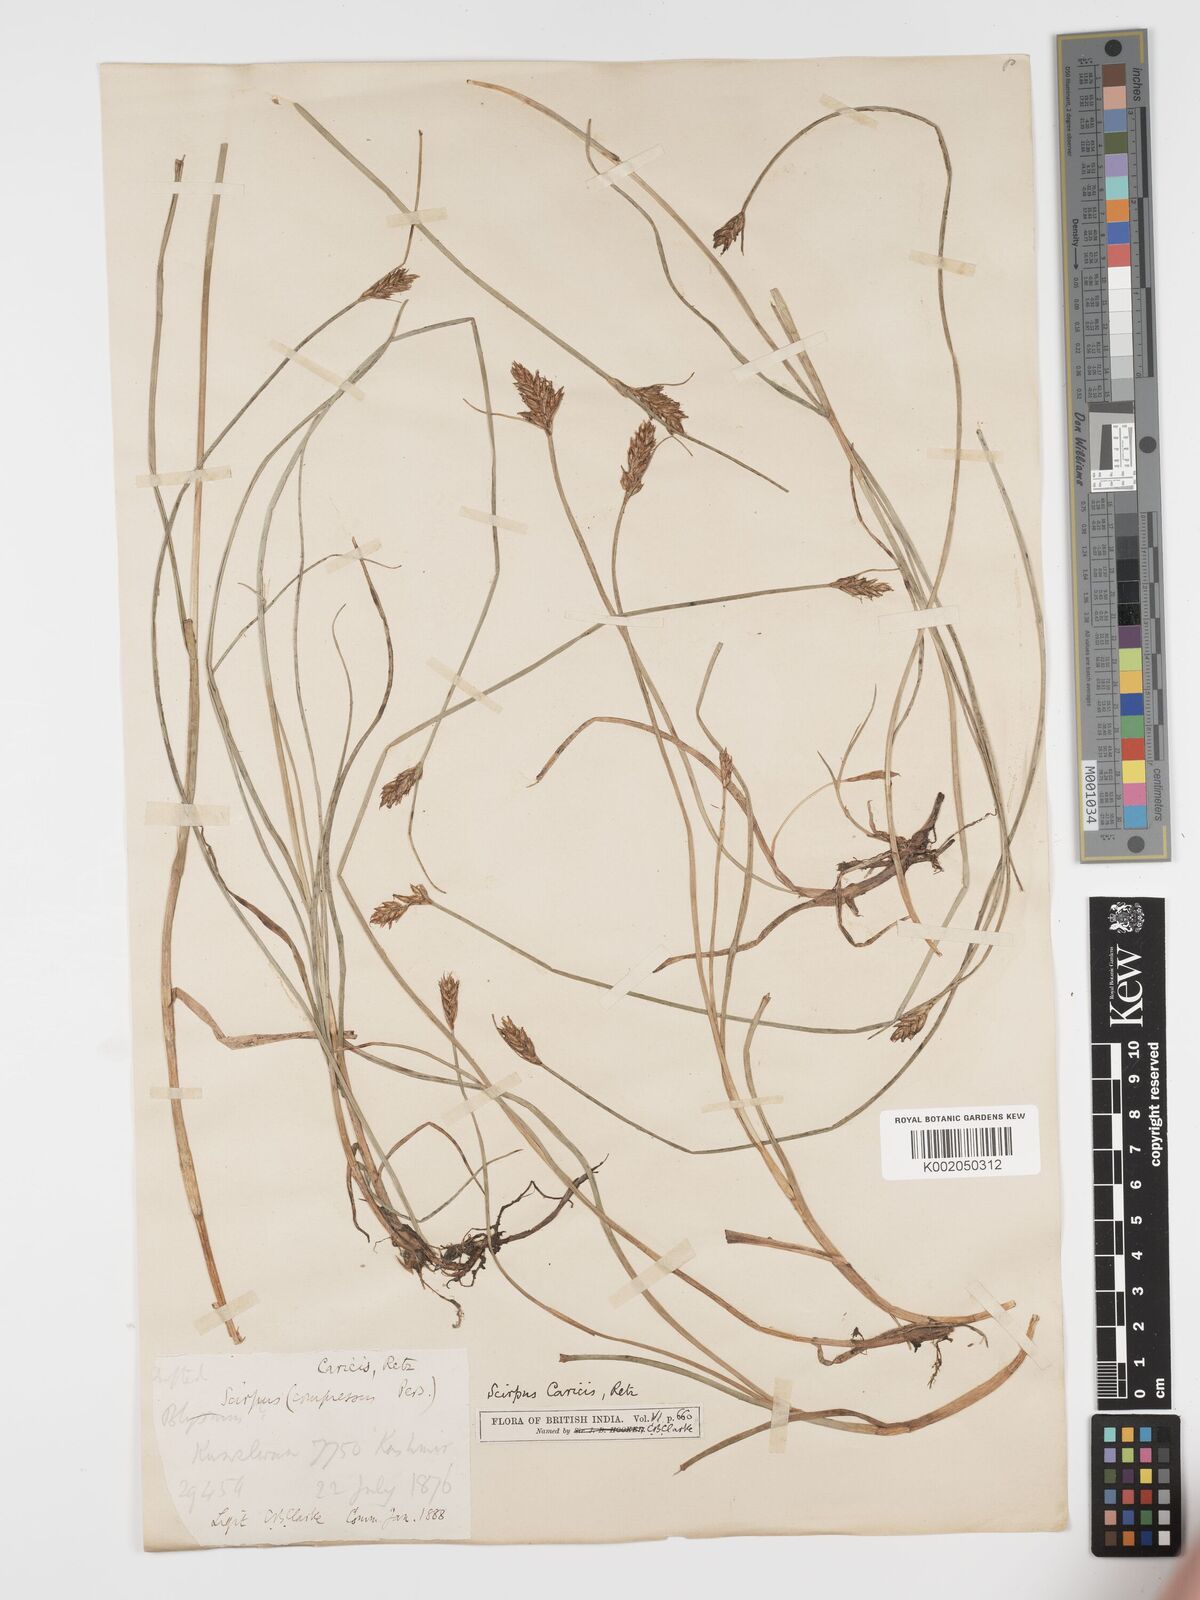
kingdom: Plantae
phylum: Tracheophyta
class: Liliopsida
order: Poales
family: Cyperaceae
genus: Blysmus
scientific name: Blysmus compressus
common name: Flat-sedge
